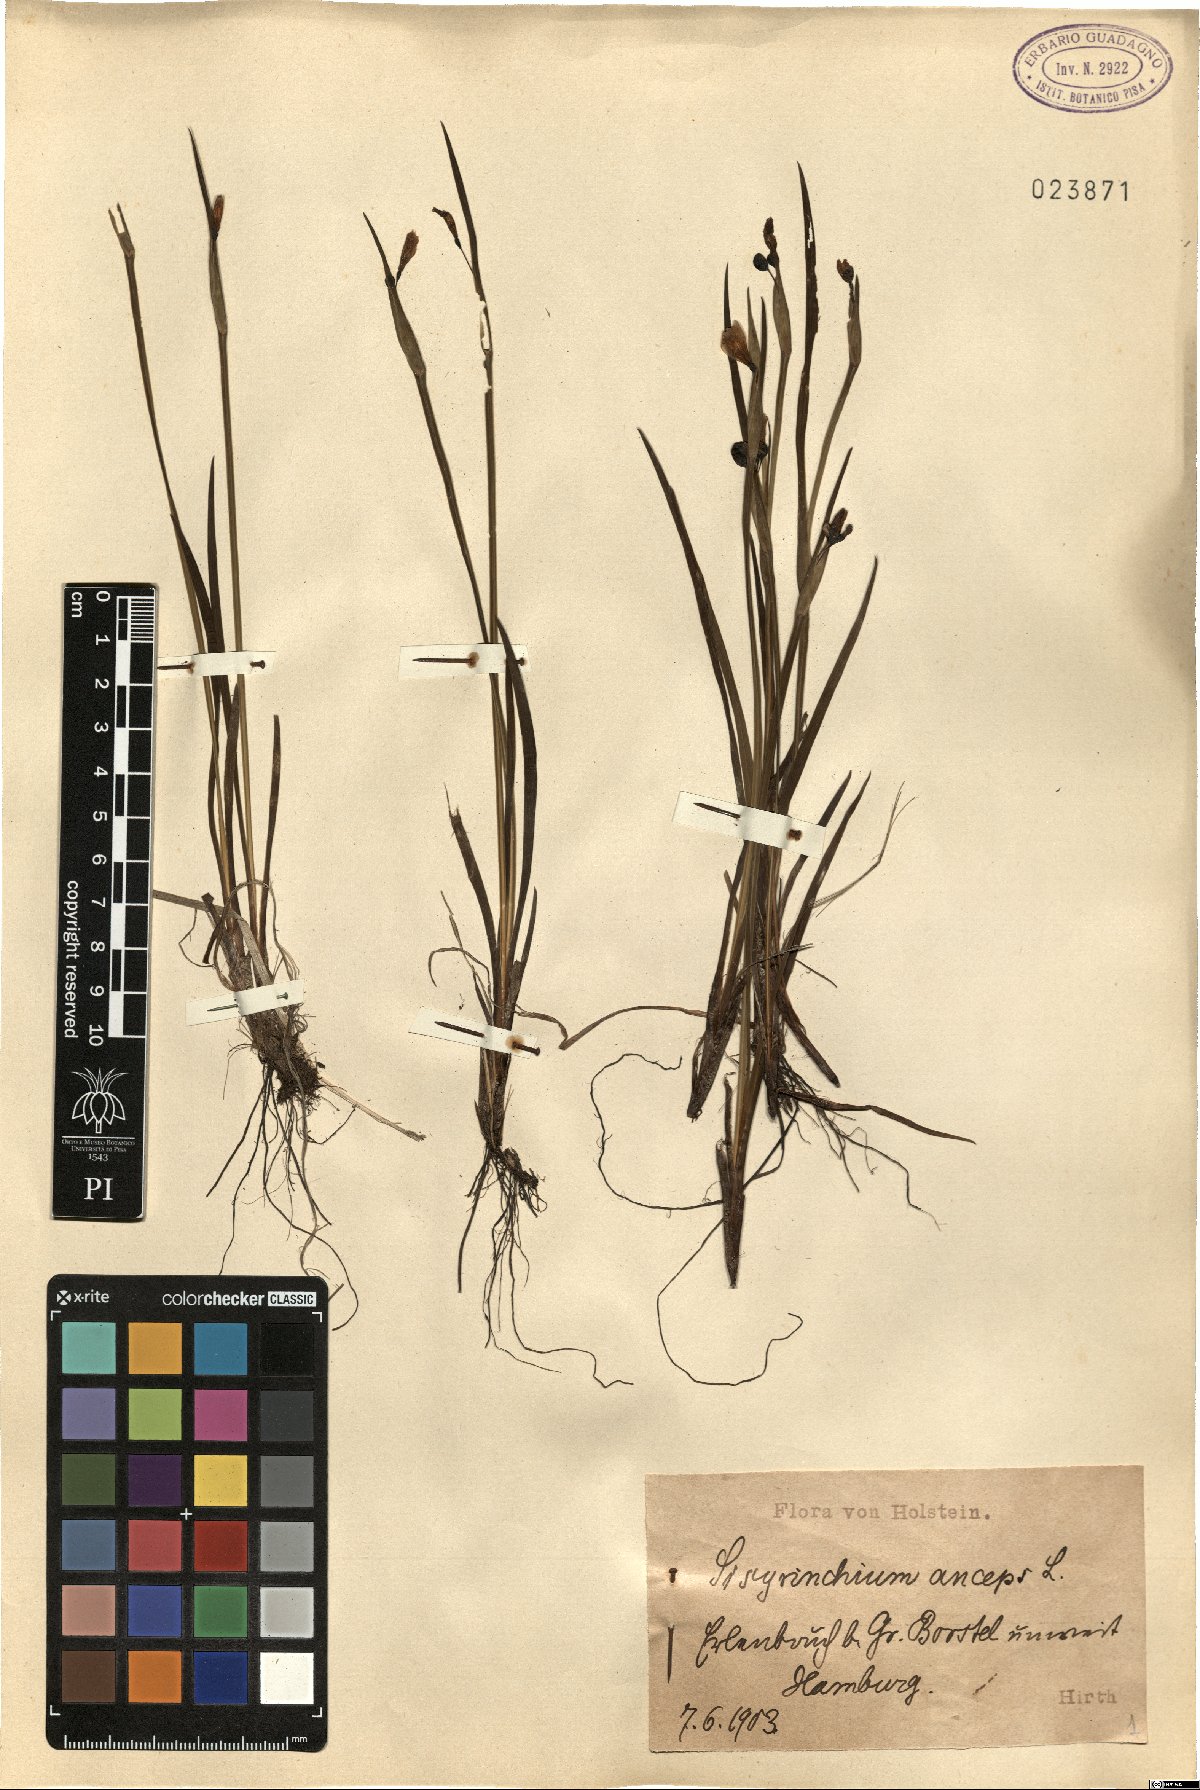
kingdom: Plantae
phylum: Tracheophyta
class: Liliopsida
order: Asparagales
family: Iridaceae
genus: Sisyrinchium
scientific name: Sisyrinchium angustifolium
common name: Narrow-leaf blue-eyed-grass
